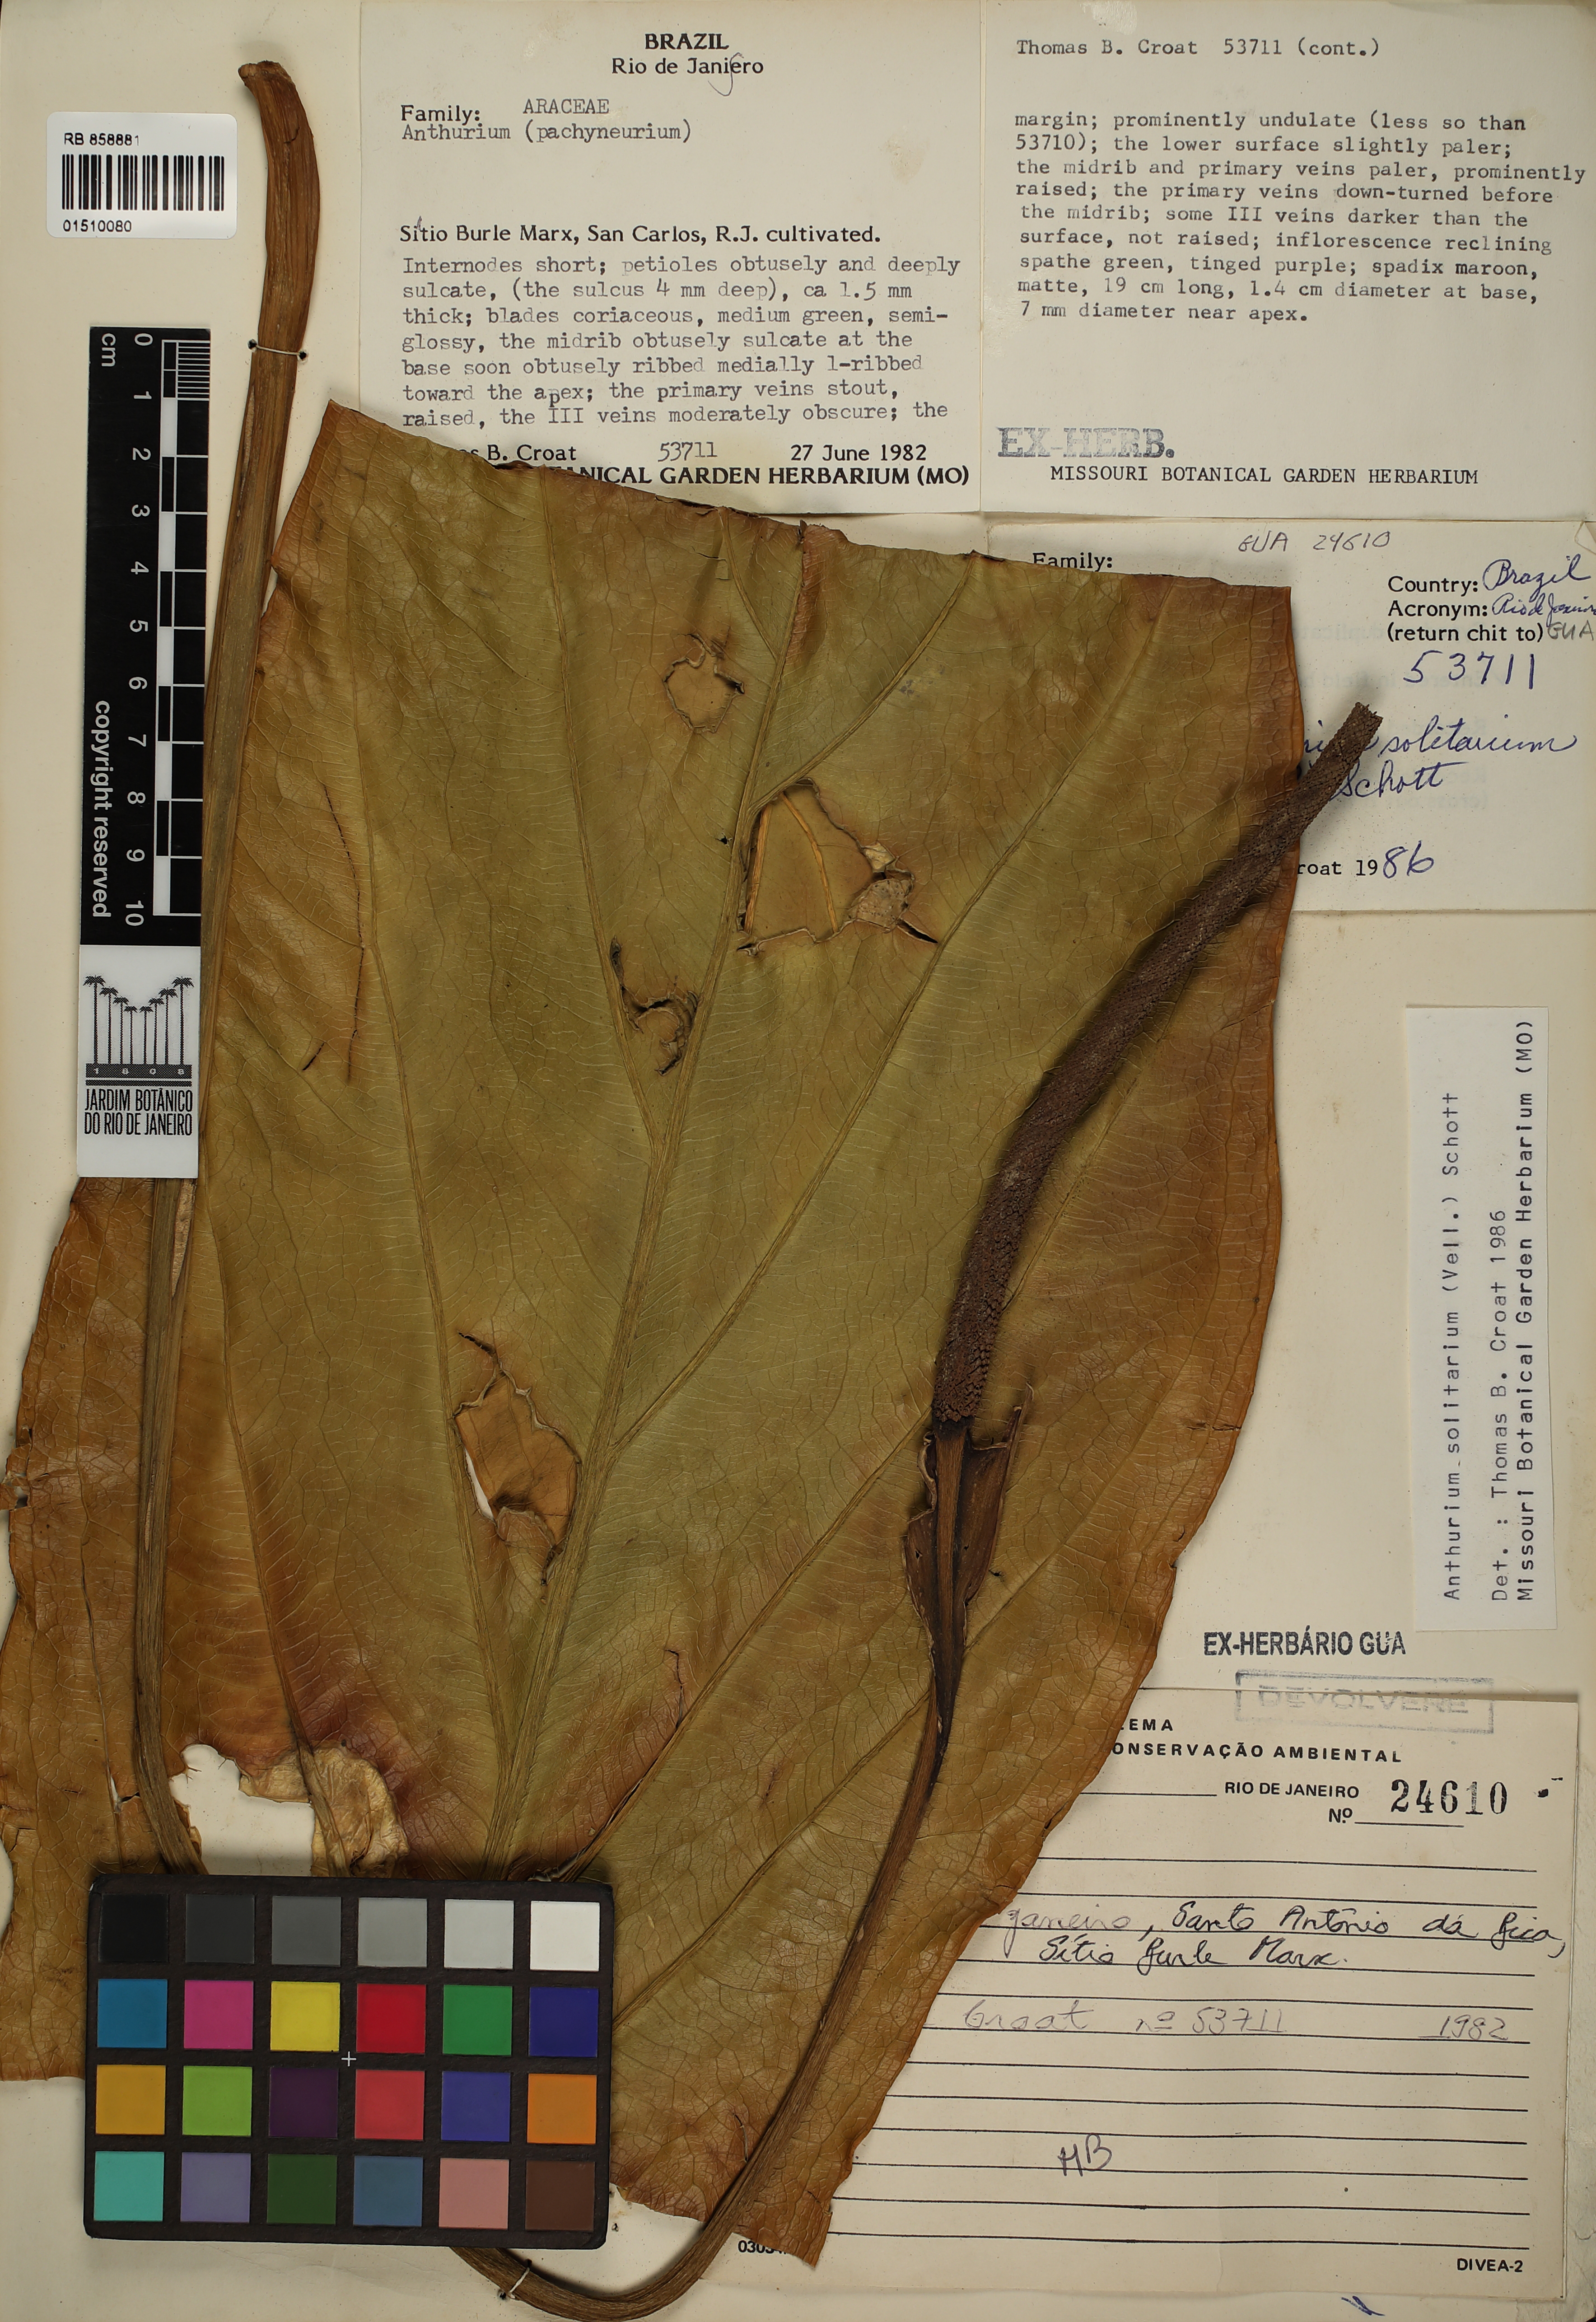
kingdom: Plantae
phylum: Tracheophyta
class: Liliopsida
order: Alismatales
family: Araceae
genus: Anthurium
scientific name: Anthurium solitarium
